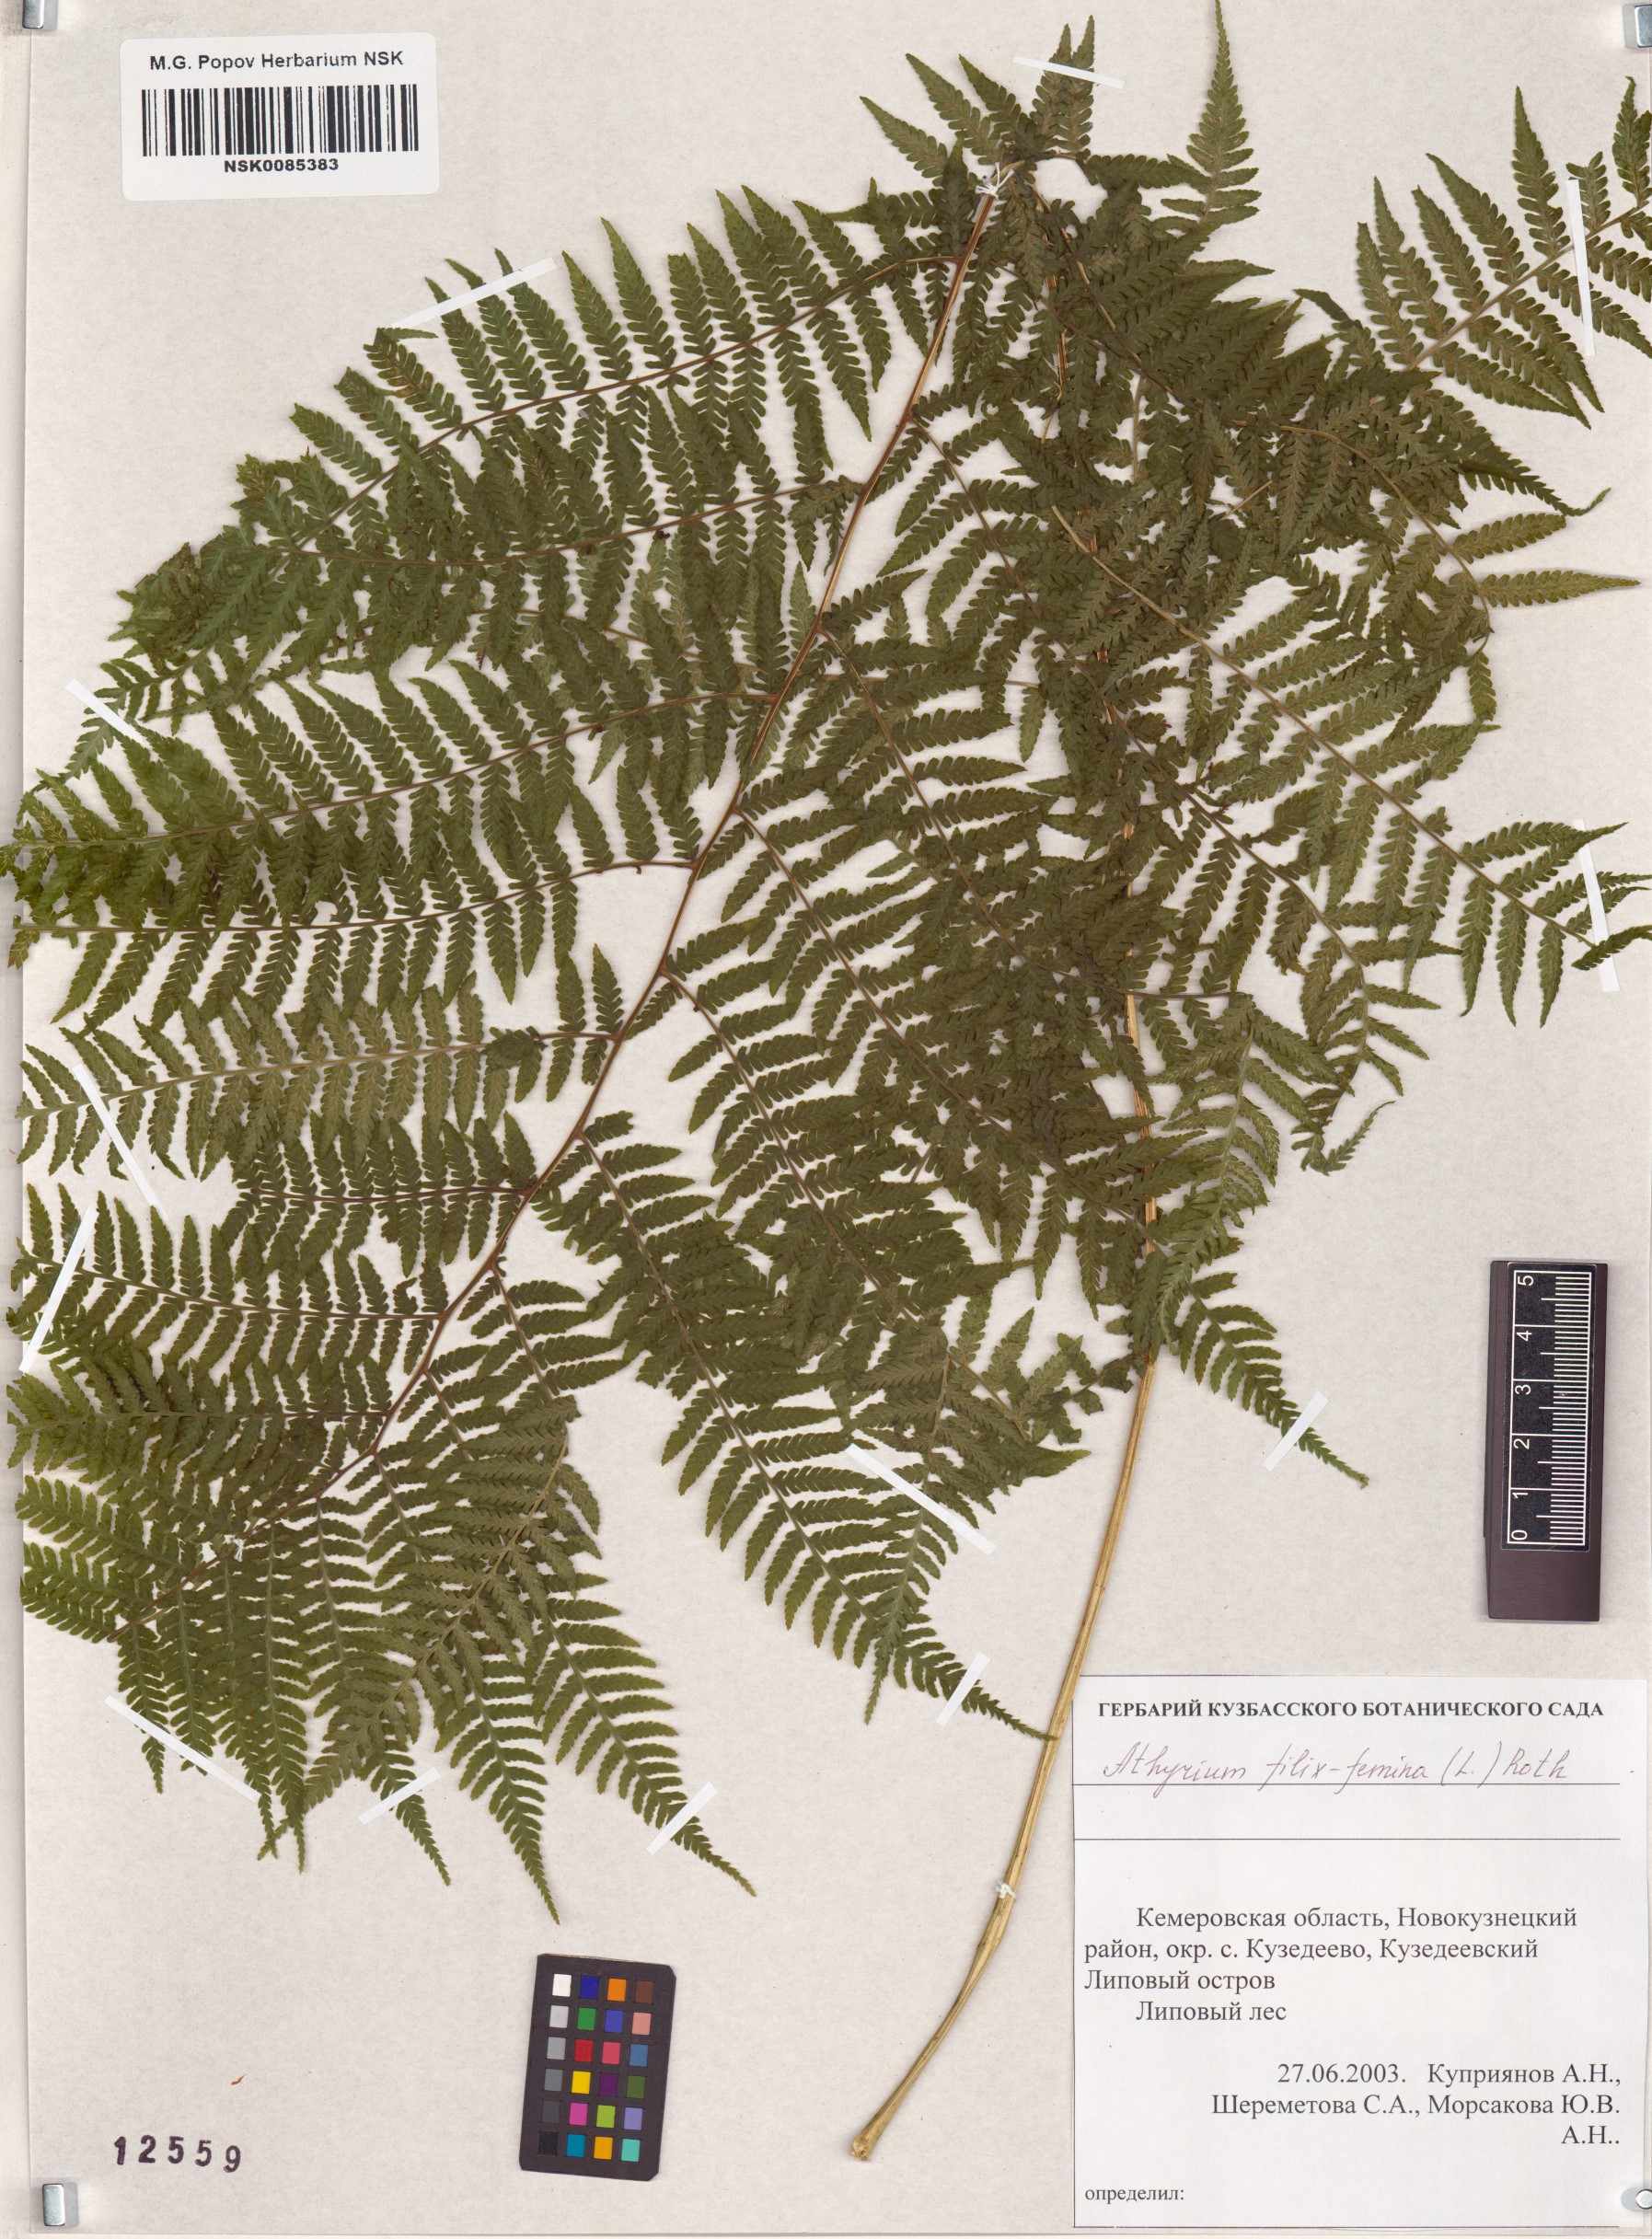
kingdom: Plantae
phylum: Tracheophyta
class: Polypodiopsida
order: Polypodiales
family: Athyriaceae
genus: Athyrium
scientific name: Athyrium filix-femina
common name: Lady fern
